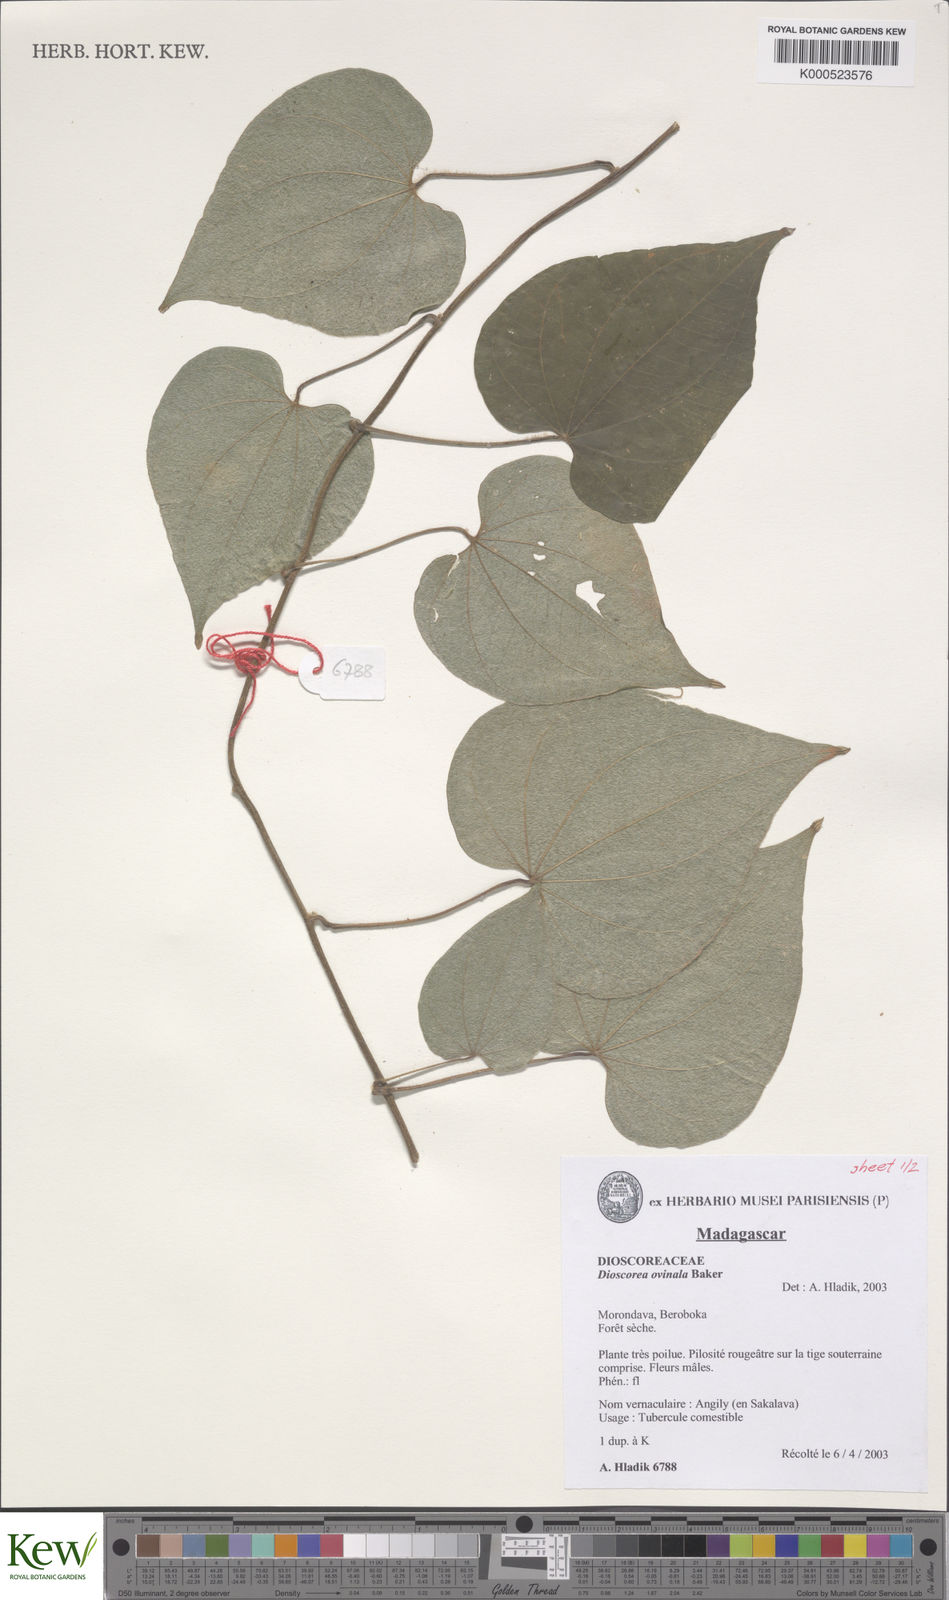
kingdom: Plantae
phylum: Tracheophyta
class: Liliopsida
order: Dioscoreales
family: Dioscoreaceae
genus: Dioscorea
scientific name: Dioscorea ovinala
